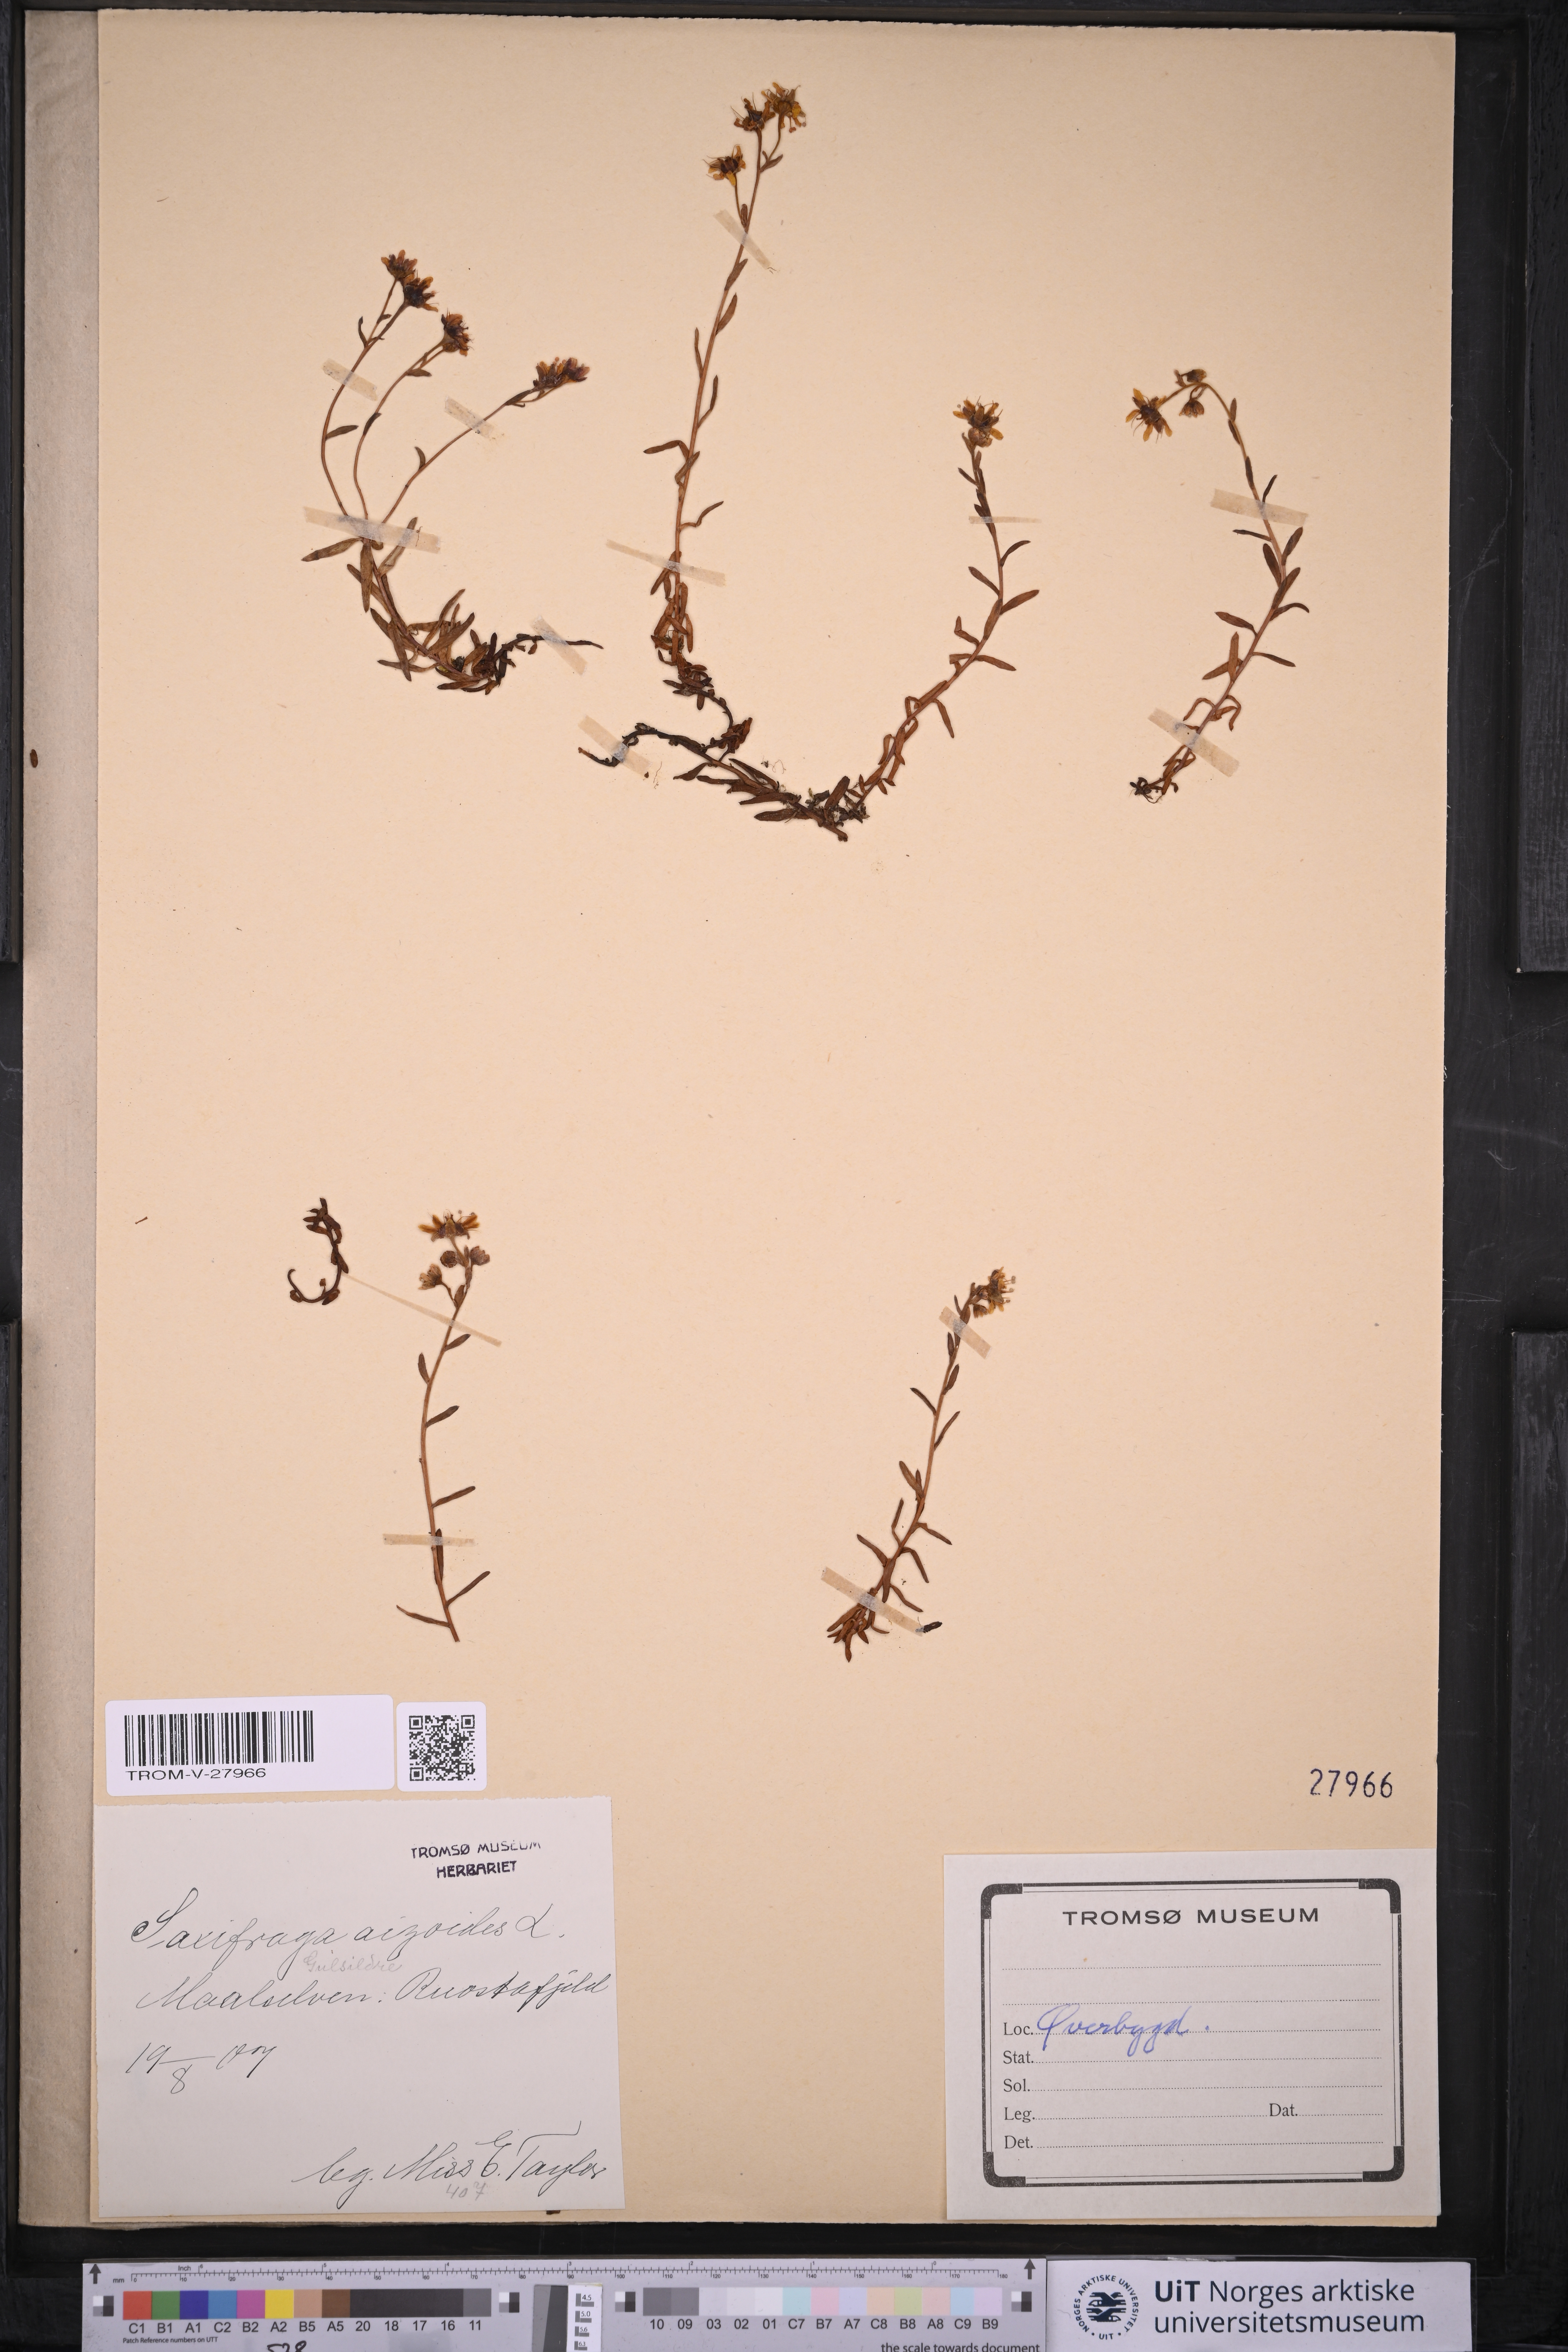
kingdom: Plantae
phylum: Tracheophyta
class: Magnoliopsida
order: Saxifragales
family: Saxifragaceae
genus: Saxifraga
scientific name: Saxifraga aizoides
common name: Yellow mountain saxifrage
